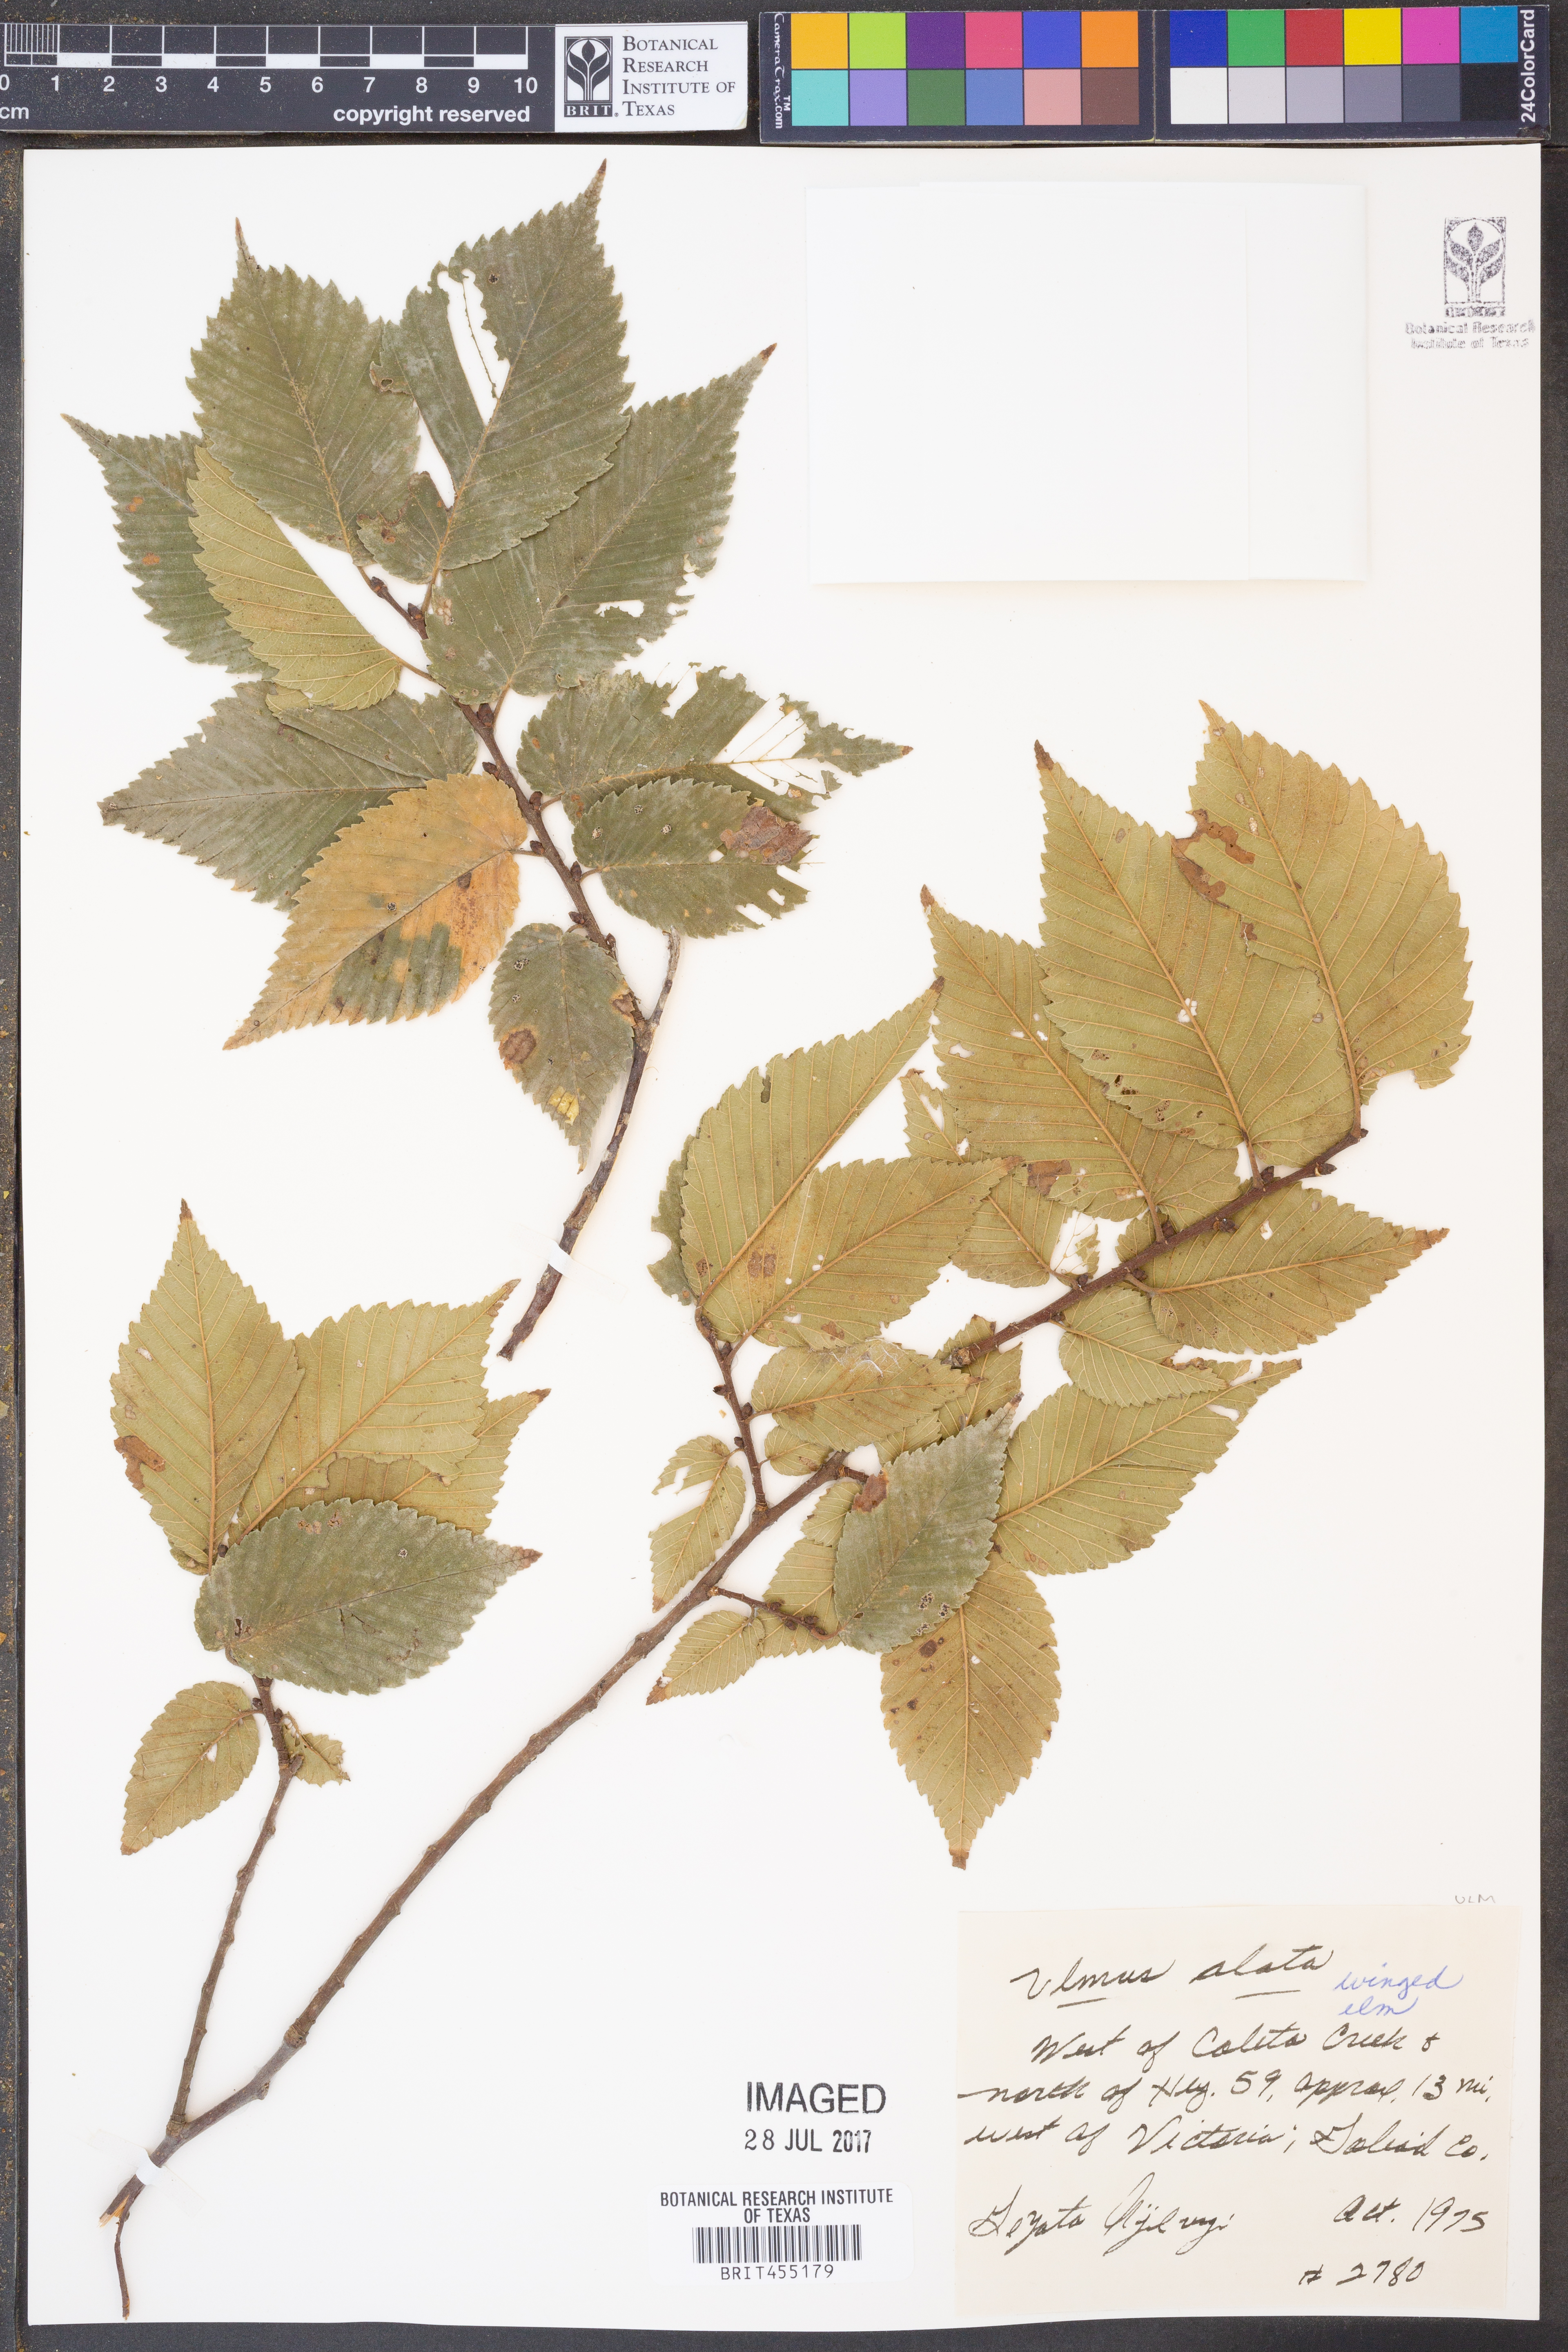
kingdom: Plantae
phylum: Tracheophyta
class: Magnoliopsida
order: Rosales
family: Ulmaceae
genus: Ulmus
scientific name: Ulmus alata
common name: Winged elm
